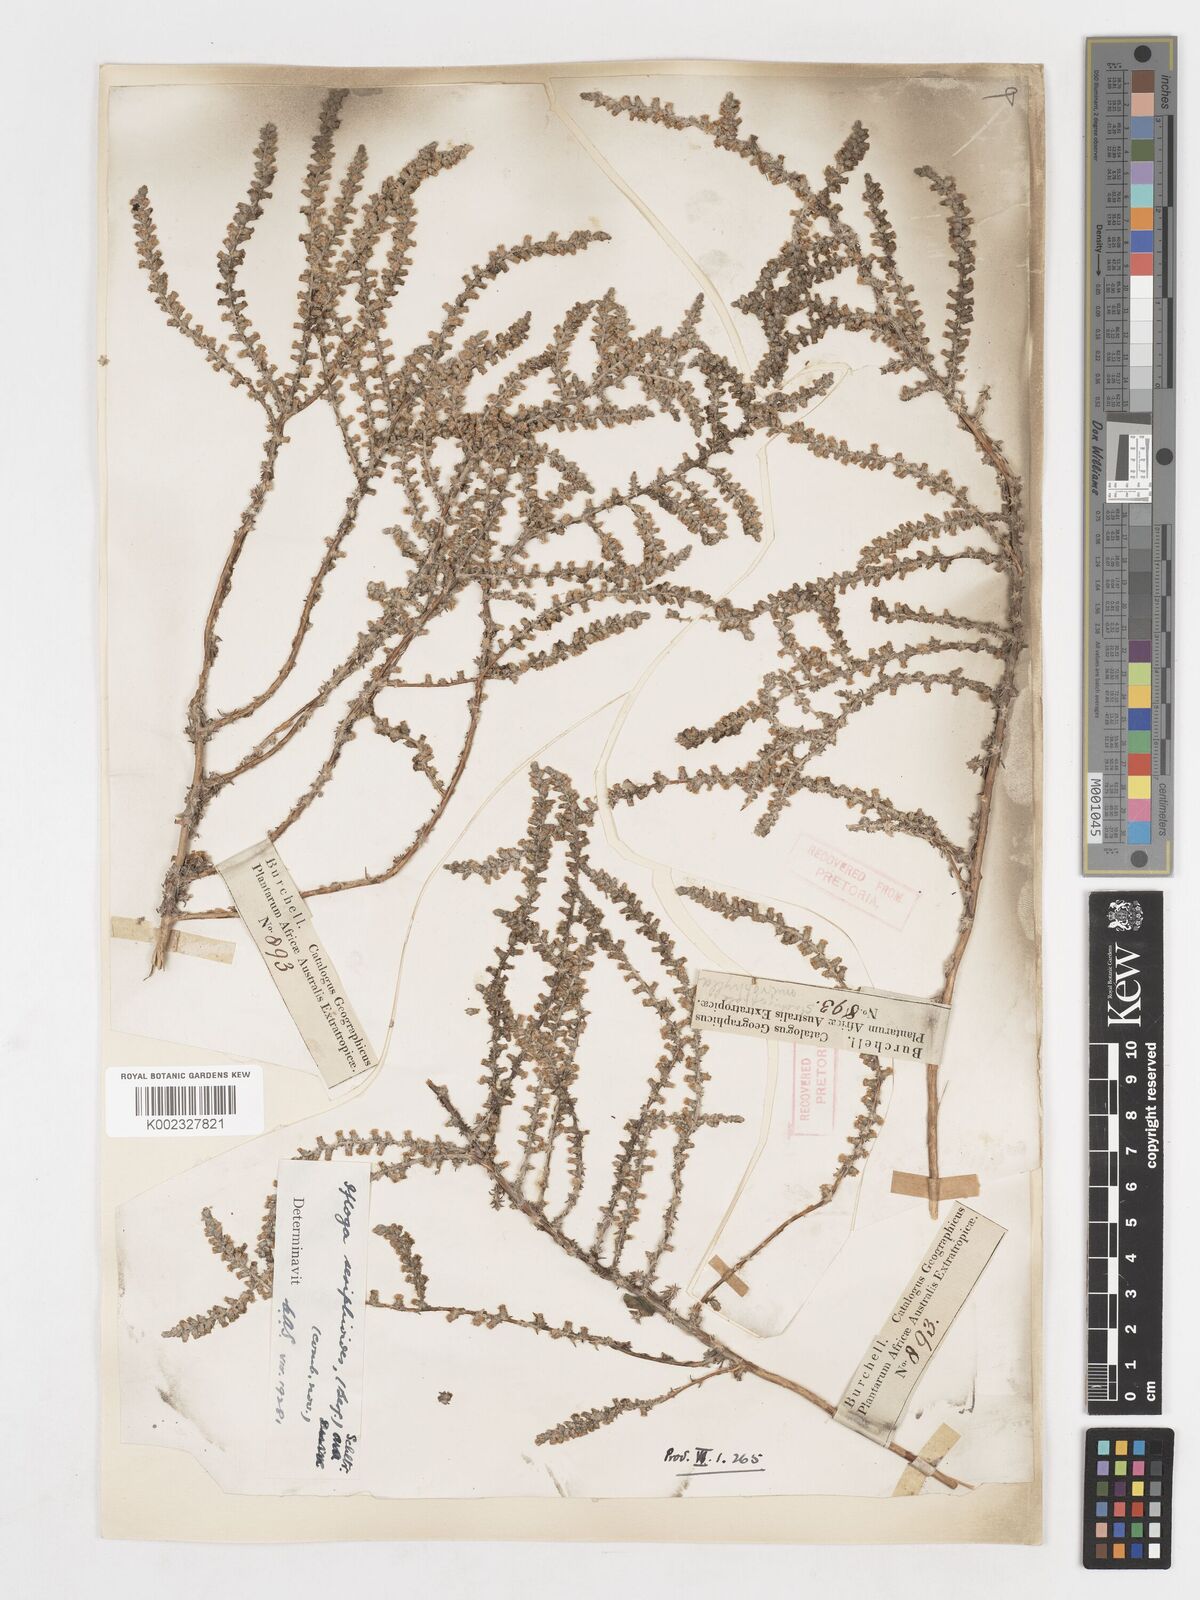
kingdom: Plantae
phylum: Tracheophyta
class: Magnoliopsida
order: Asterales
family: Asteraceae
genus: Ifloga
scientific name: Ifloga ambigua
